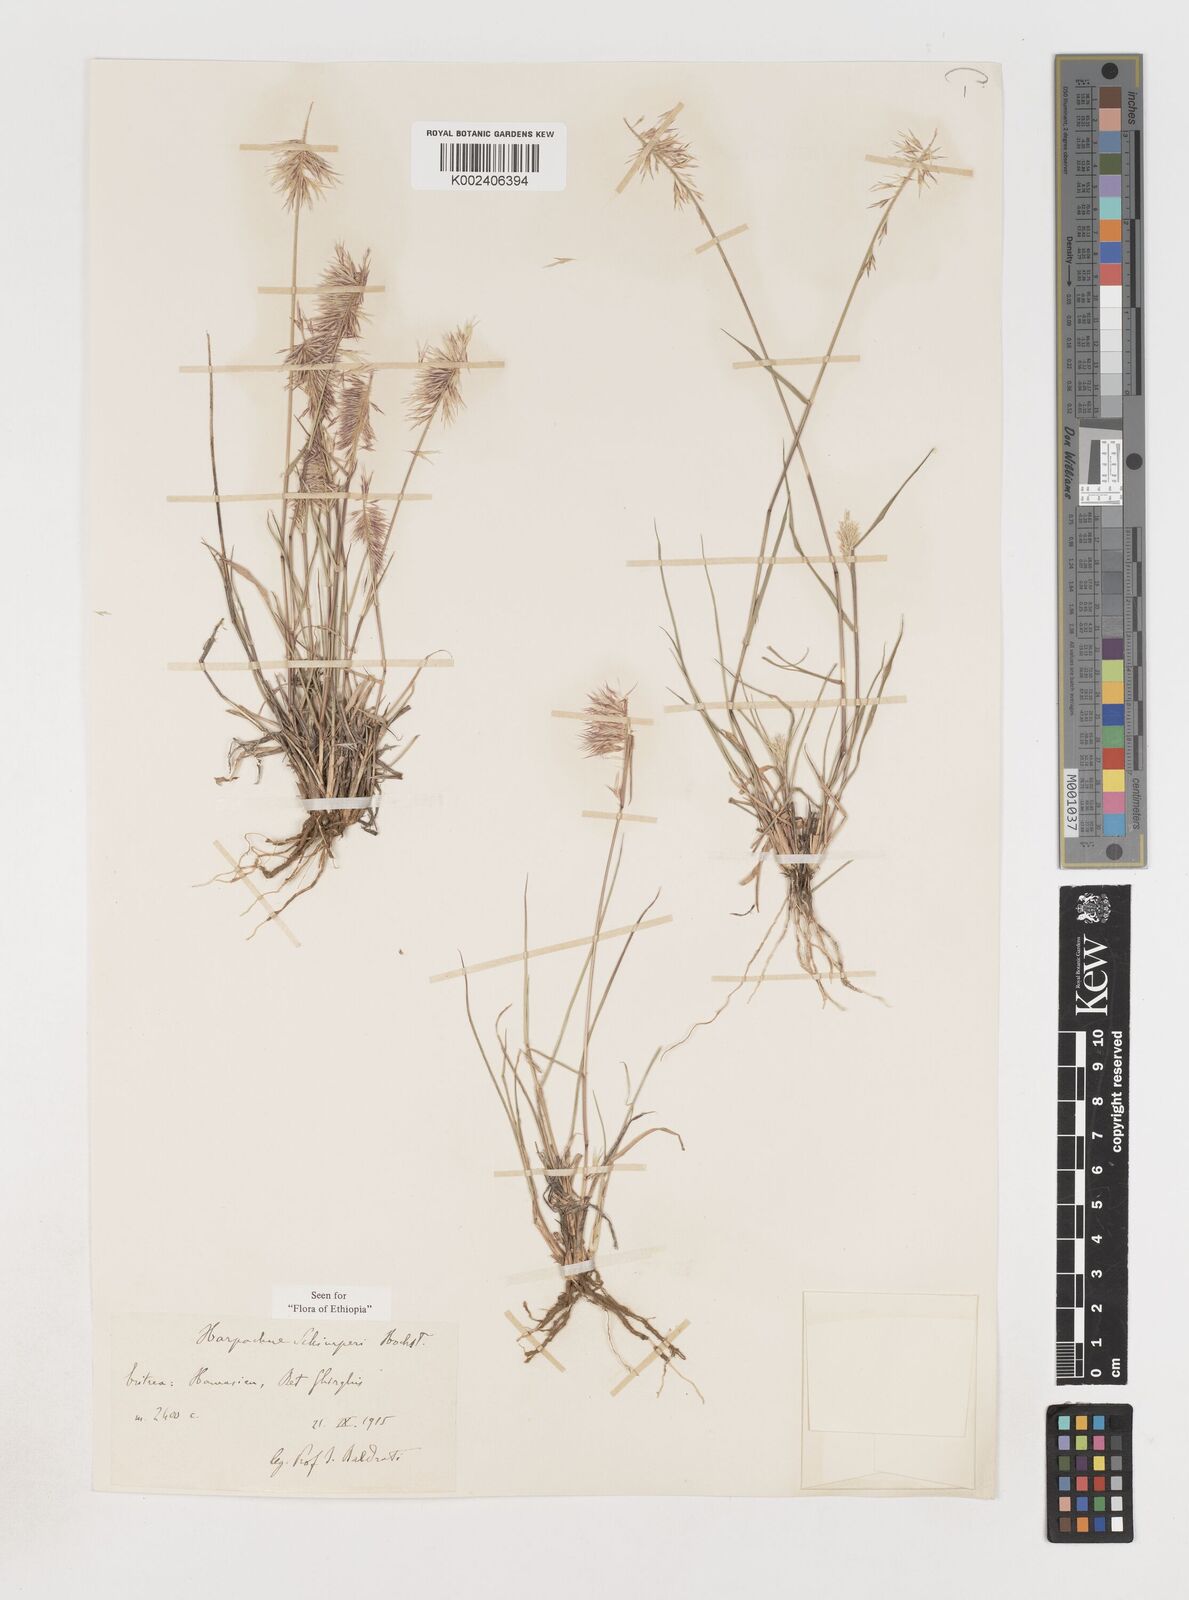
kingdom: Plantae
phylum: Tracheophyta
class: Liliopsida
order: Poales
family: Poaceae
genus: Harpachne
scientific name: Harpachne schimperi
